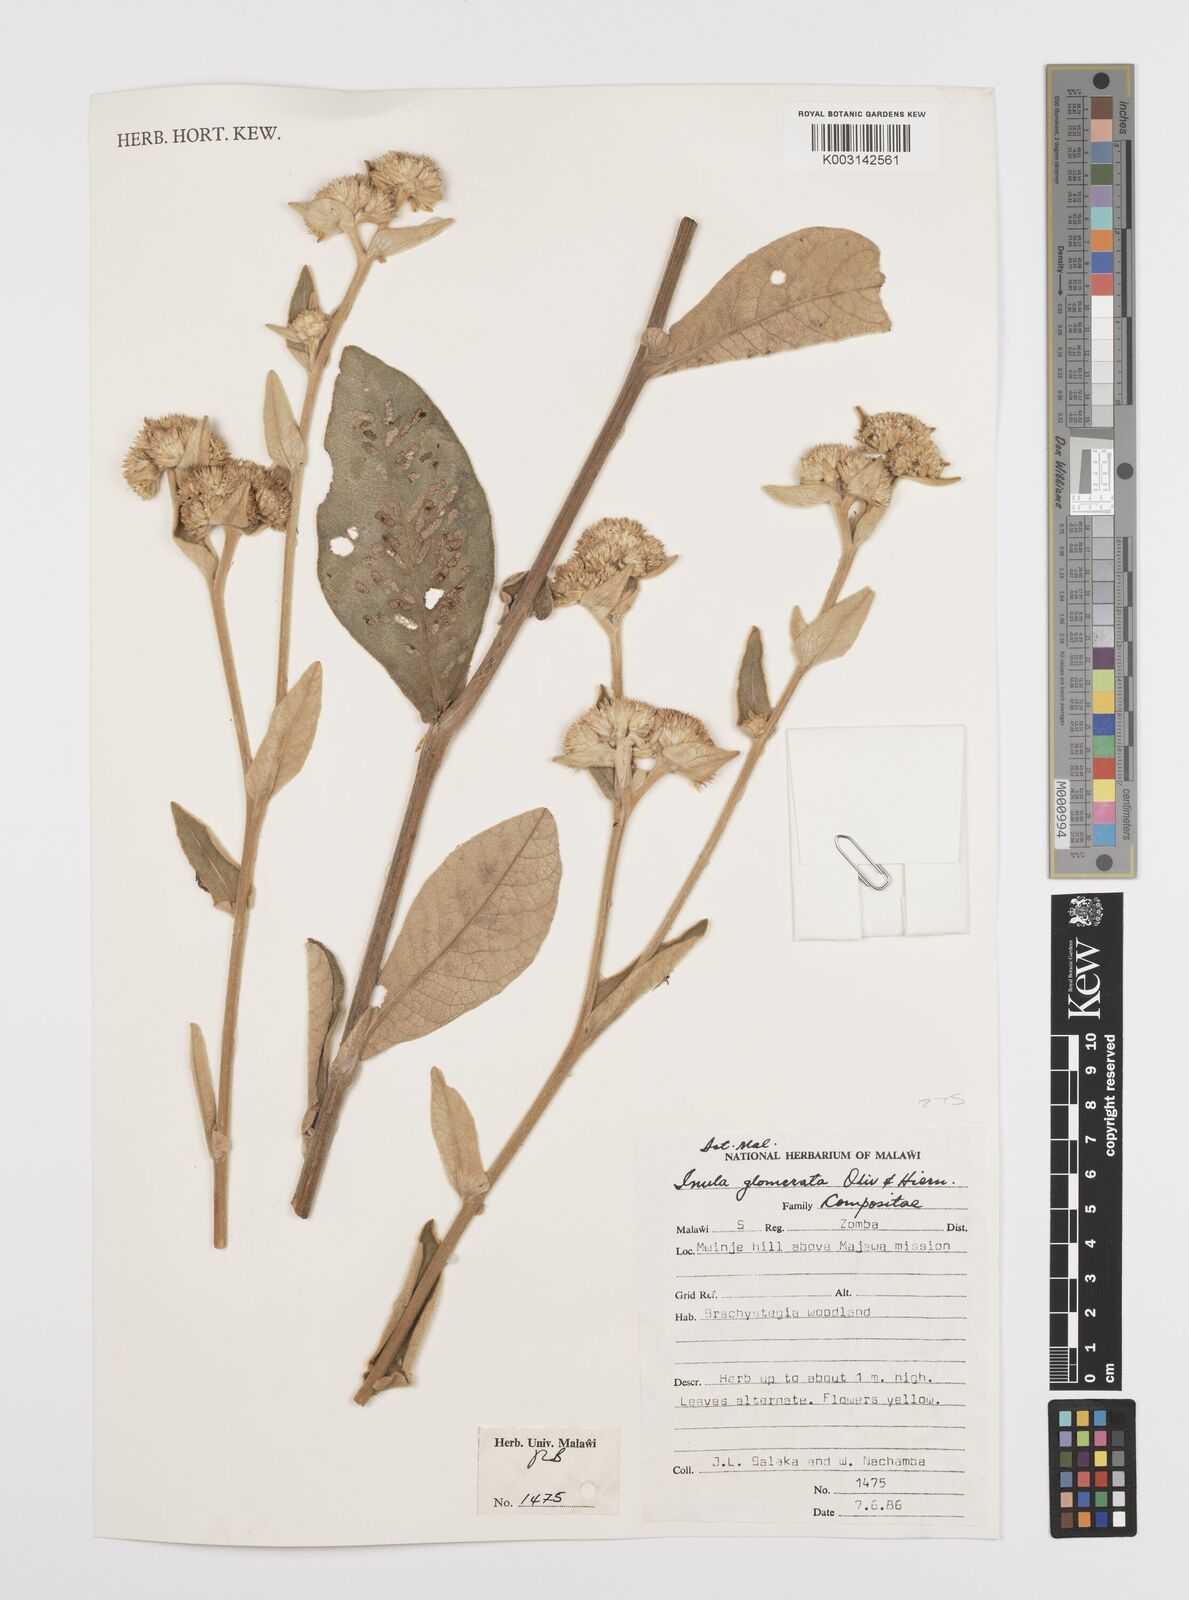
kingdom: Plantae
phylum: Tracheophyta
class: Magnoliopsida
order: Asterales
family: Asteraceae
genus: Inula
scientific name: Inula glomerata
